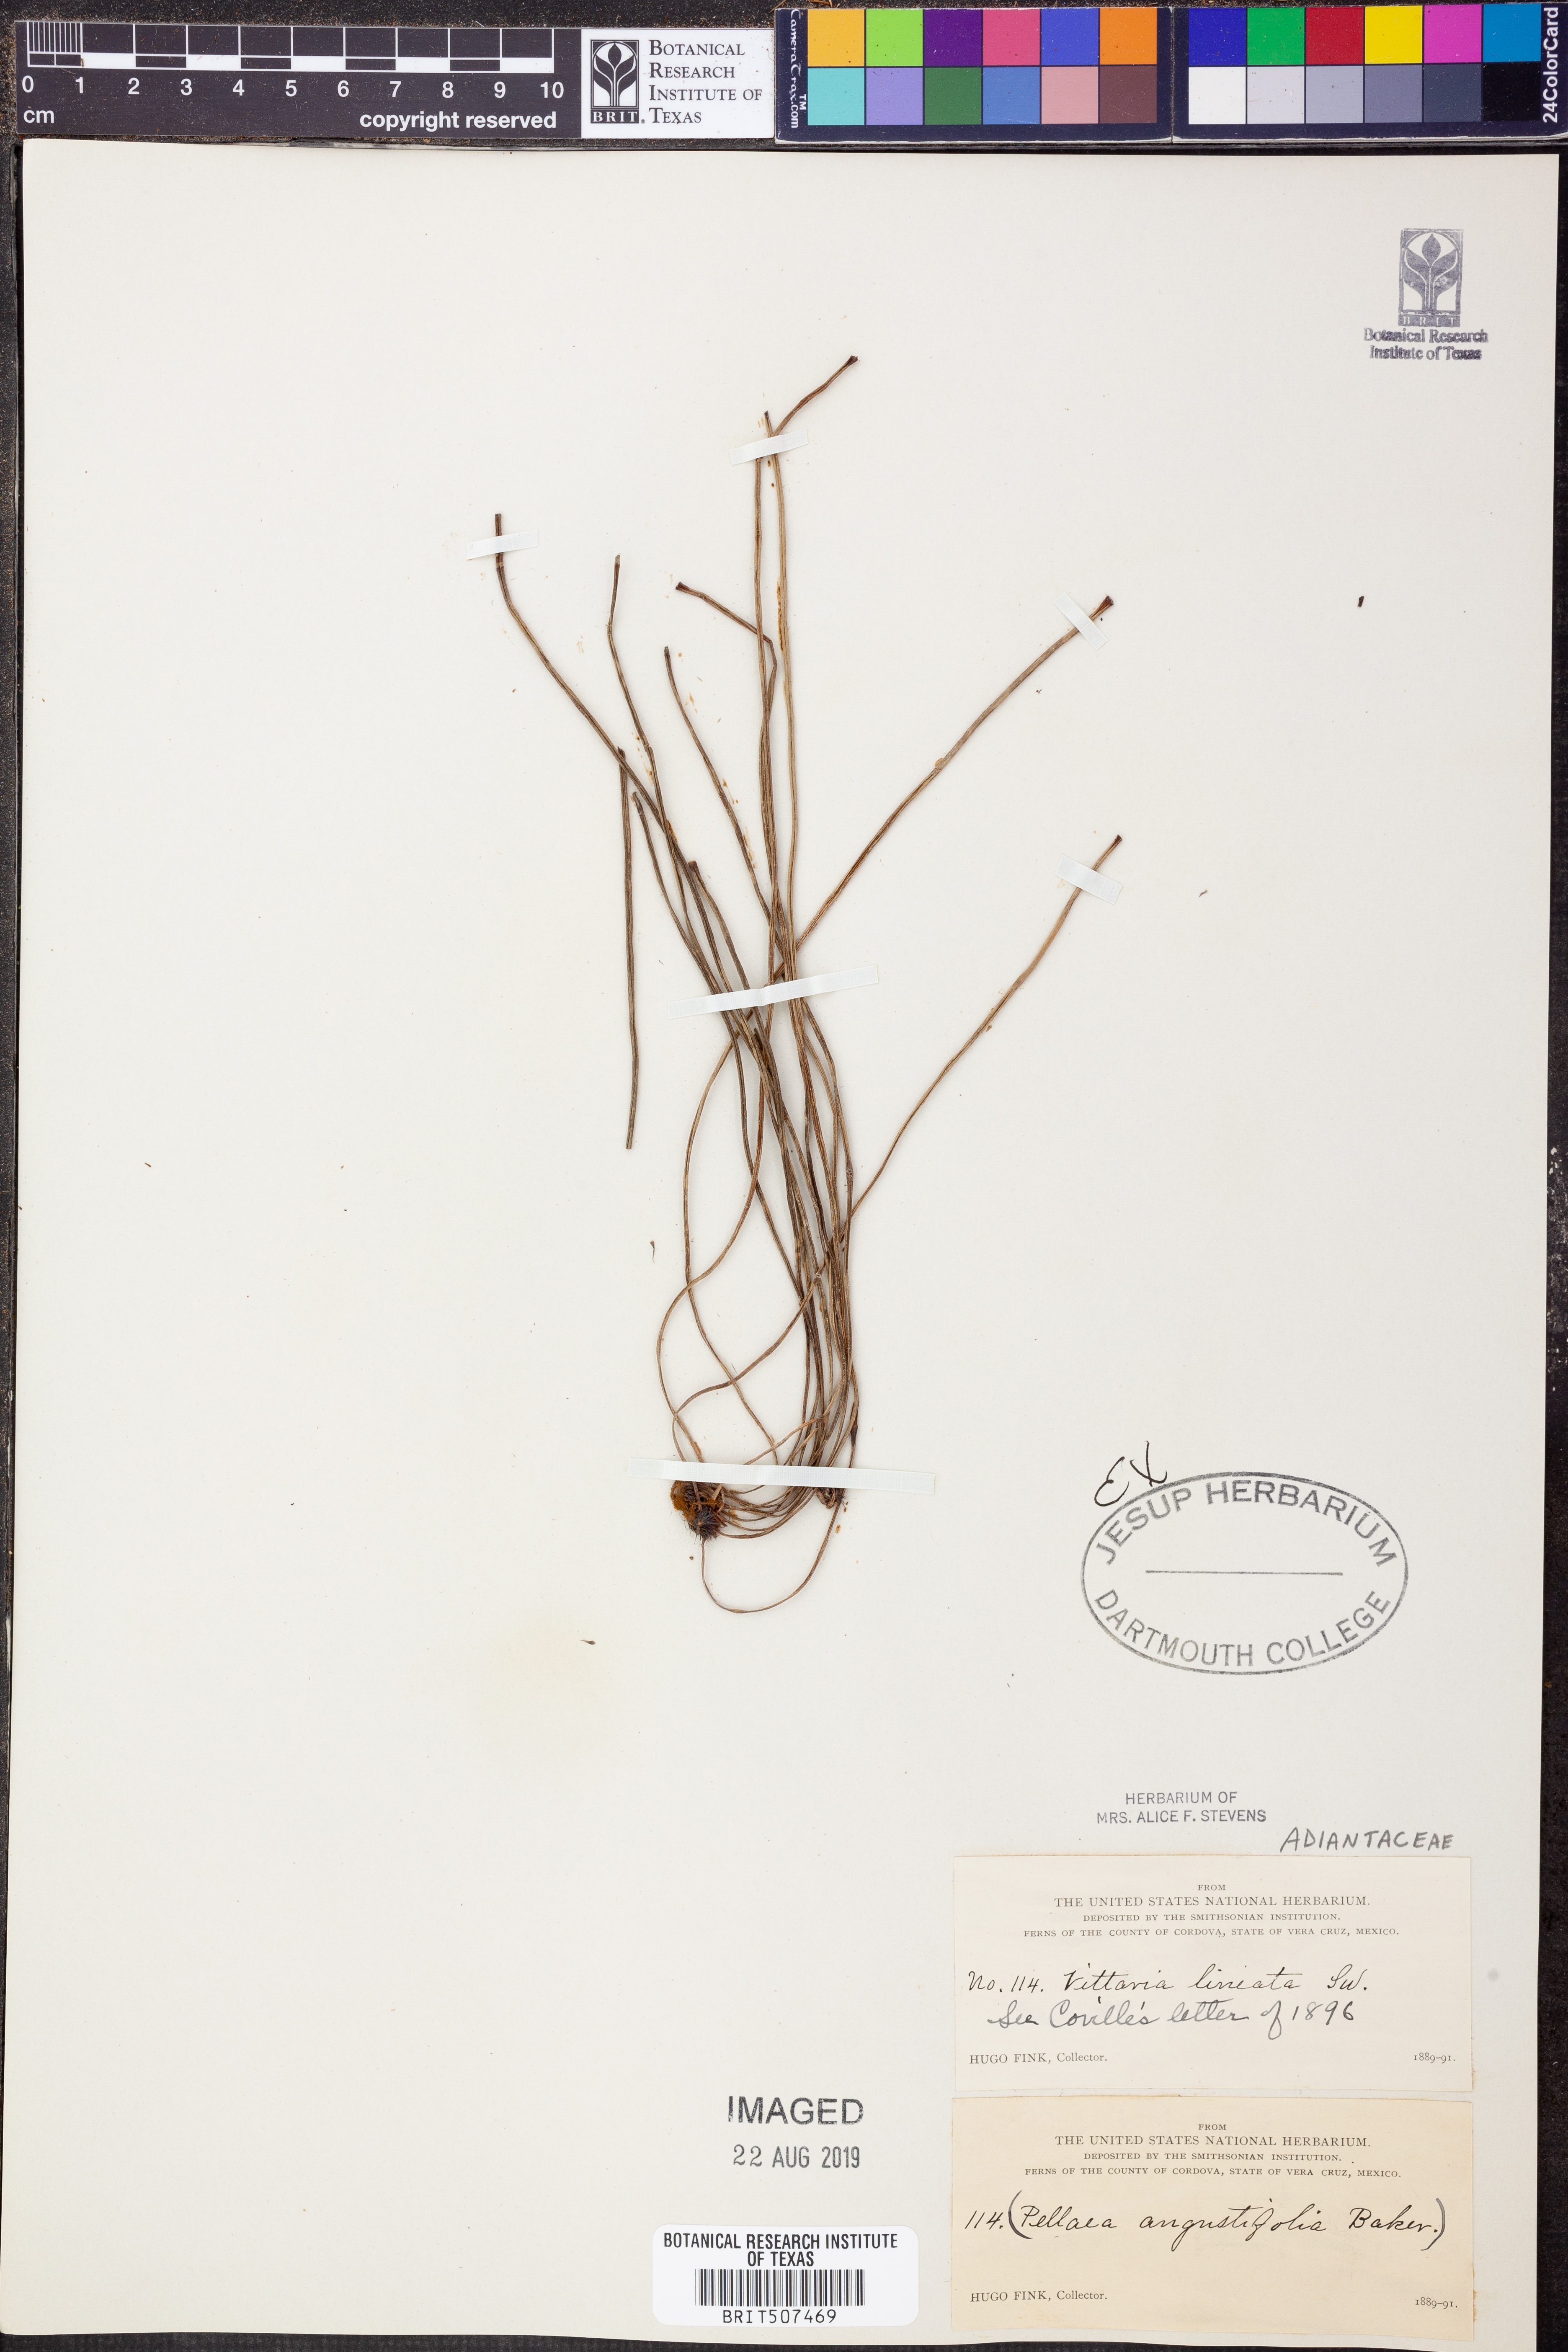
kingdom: Plantae
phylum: Tracheophyta
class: Polypodiopsida
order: Polypodiales
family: Pteridaceae
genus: Vittaria
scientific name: Vittaria lineata
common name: Shoestring fern
